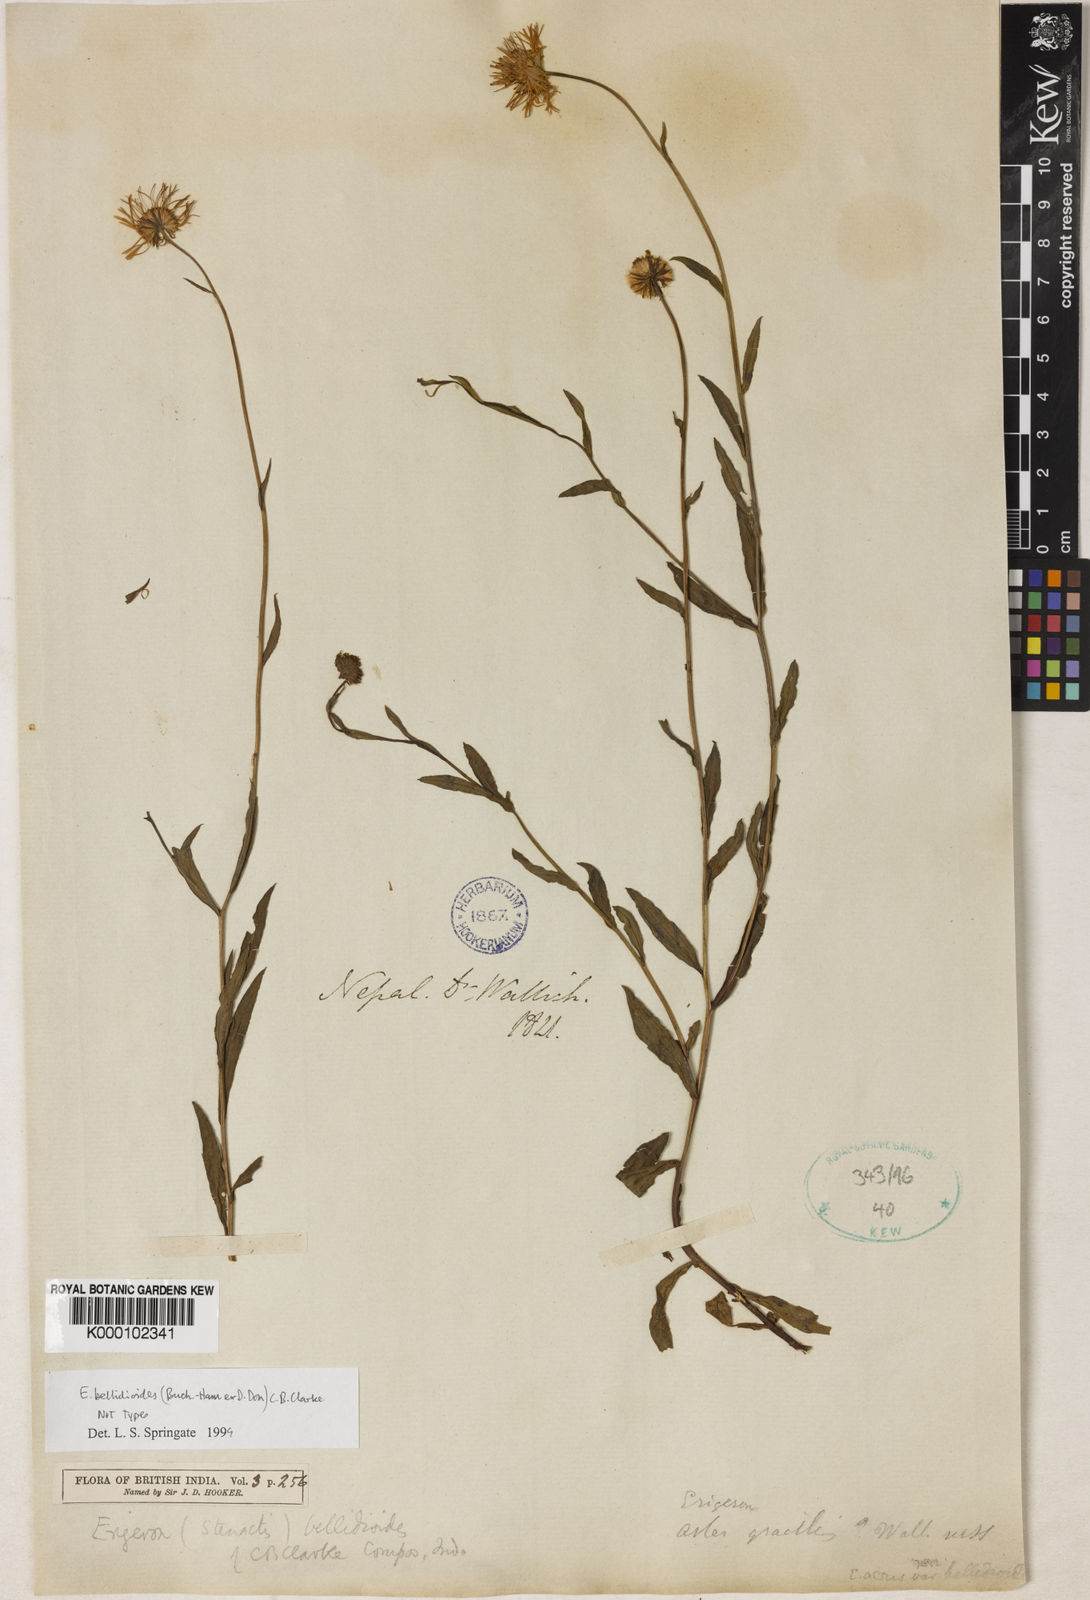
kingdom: Plantae
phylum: Tracheophyta
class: Magnoliopsida
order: Asterales
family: Asteraceae
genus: Erigeron
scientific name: Erigeron emodi
